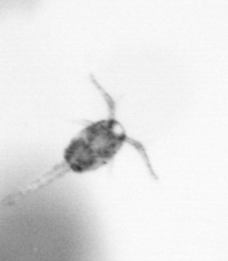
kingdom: Animalia
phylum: Arthropoda
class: Copepoda
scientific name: Copepoda
